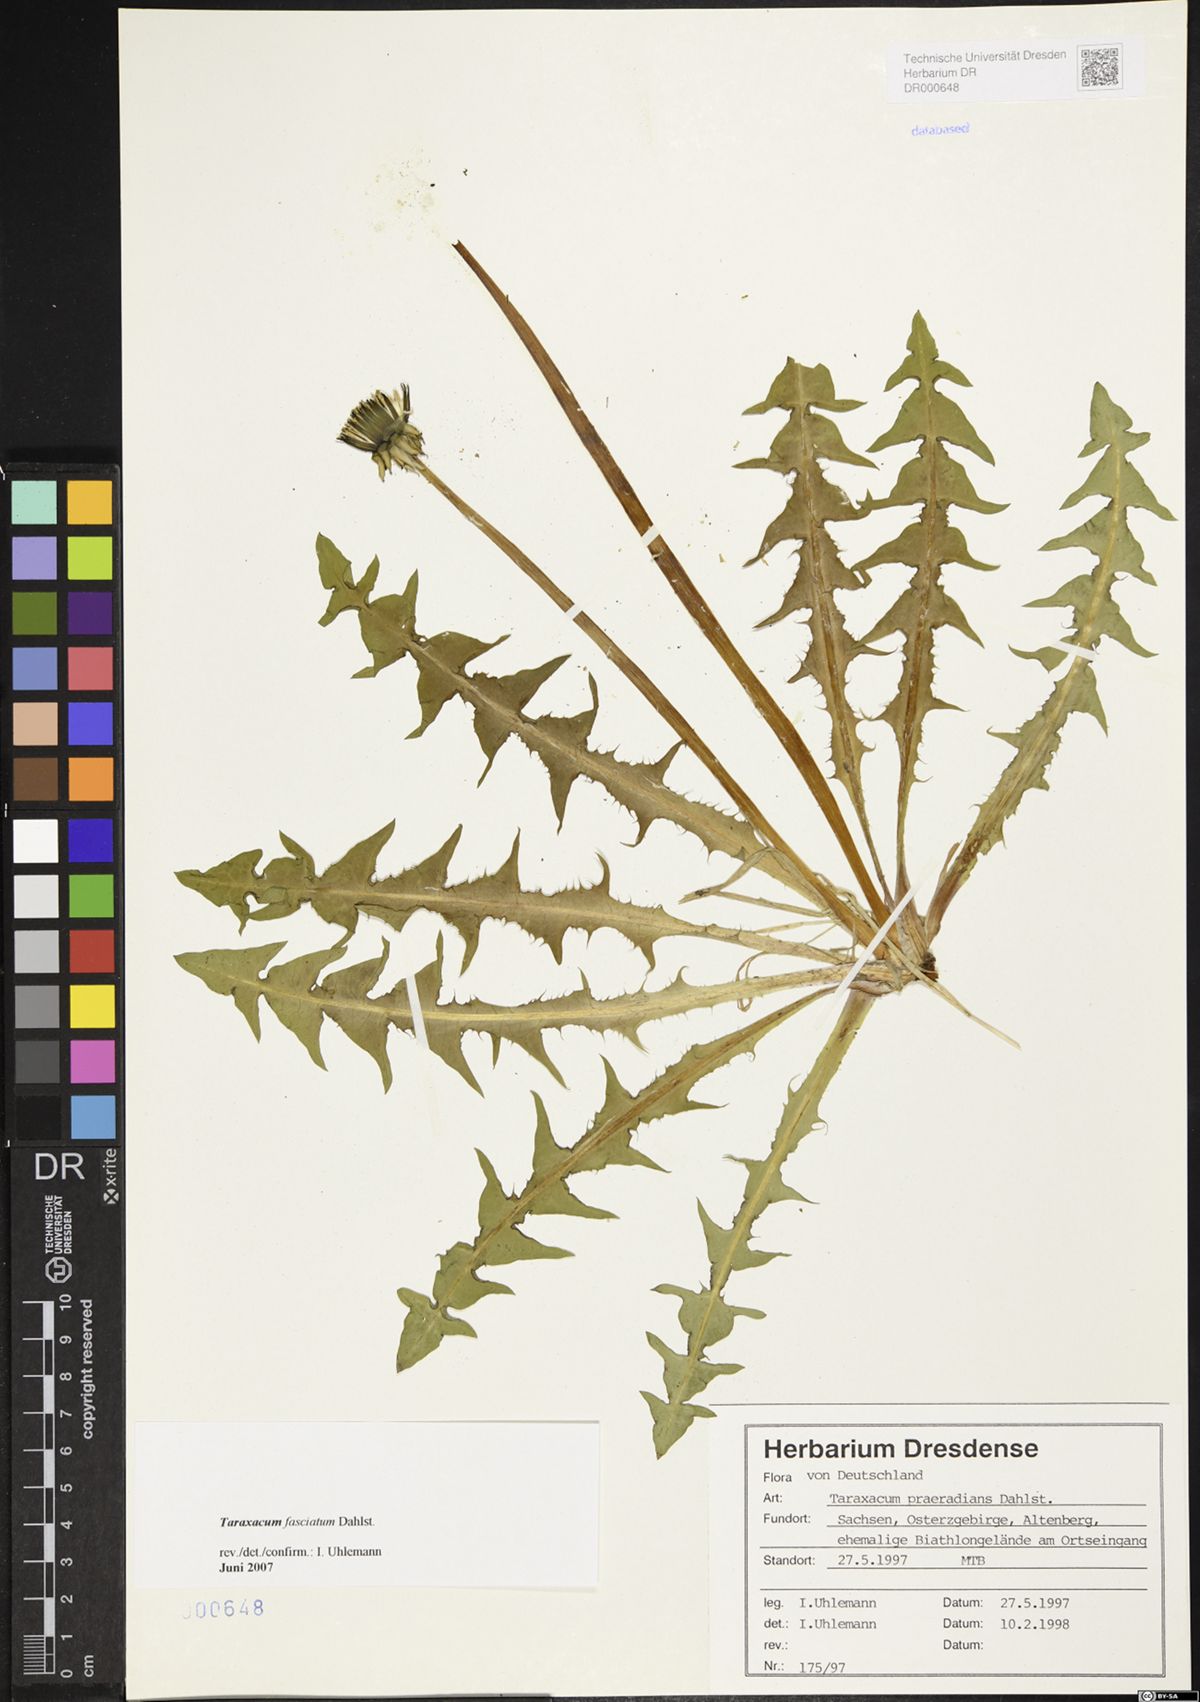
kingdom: Plantae
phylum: Tracheophyta
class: Magnoliopsida
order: Asterales
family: Asteraceae
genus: Taraxacum
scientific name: Taraxacum fasciatum
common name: Dense-bracted dandelion
